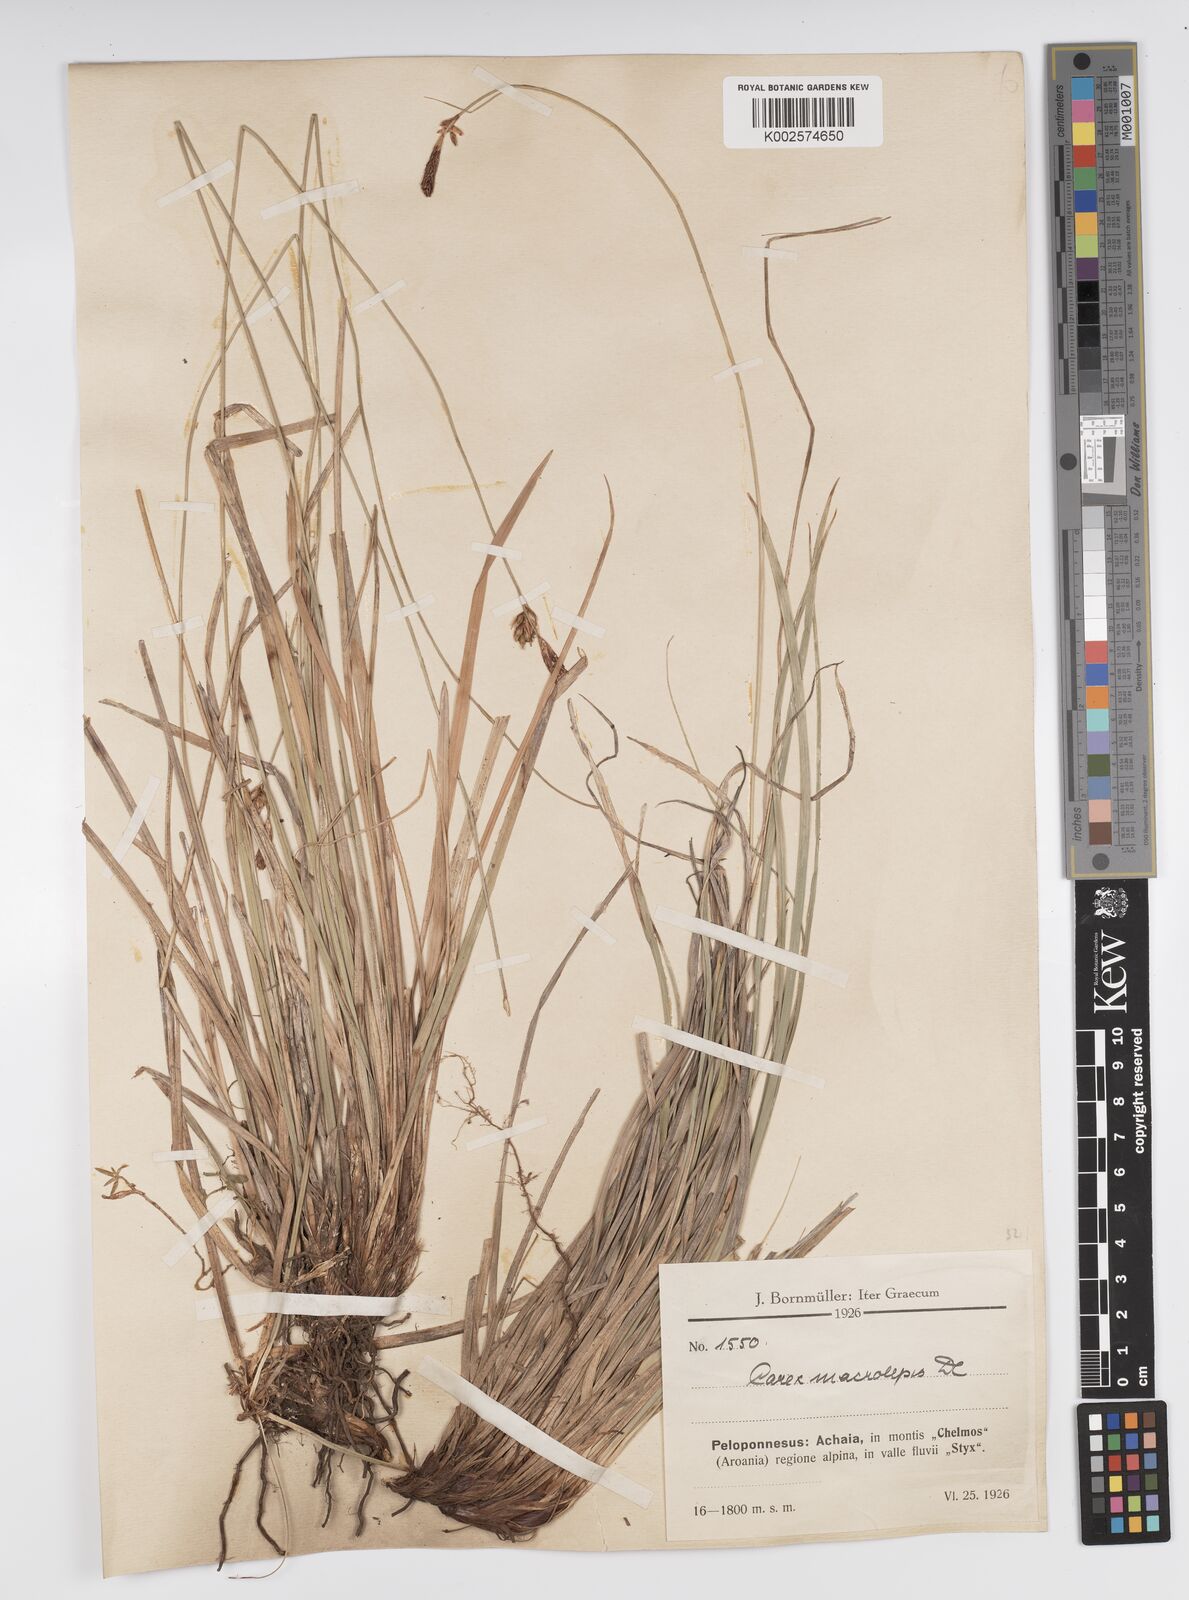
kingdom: Plantae
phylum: Tracheophyta
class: Liliopsida
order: Poales
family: Cyperaceae
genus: Carex
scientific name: Carex macrolepis
